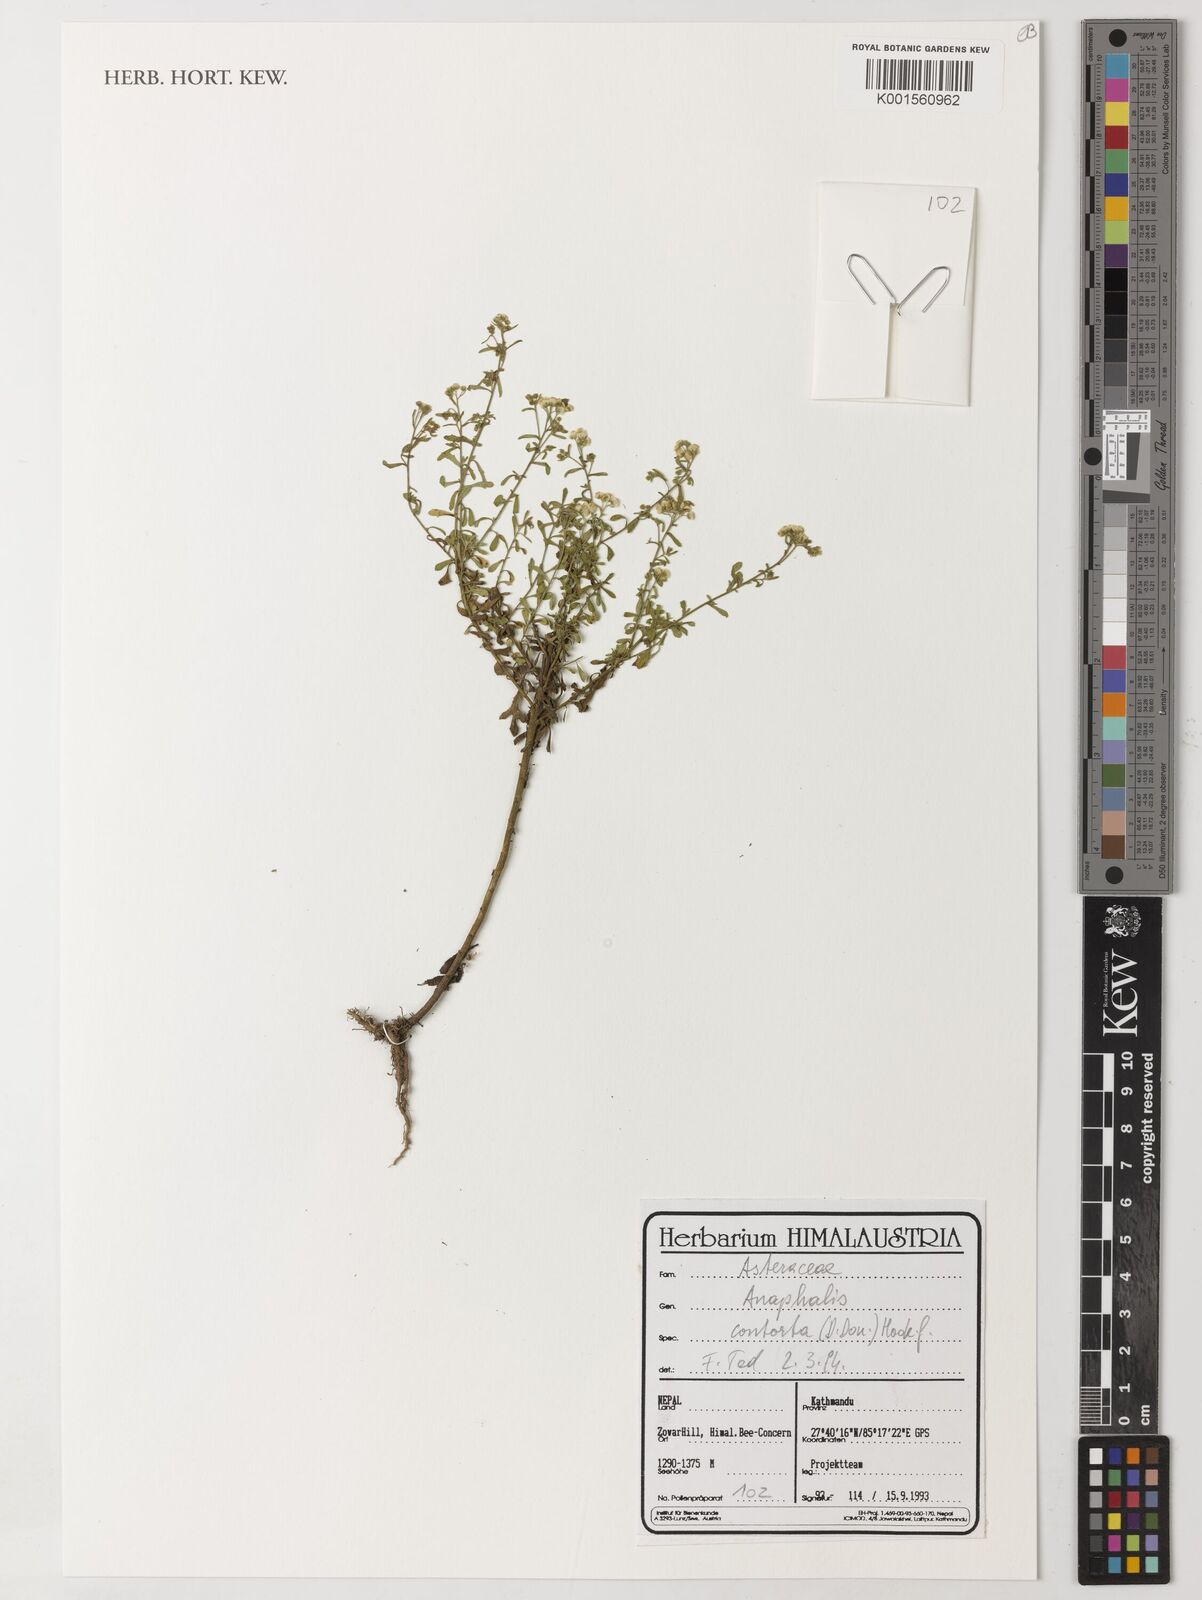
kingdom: Plantae
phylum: Tracheophyta
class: Magnoliopsida
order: Asterales
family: Asteraceae
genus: Anaphalis
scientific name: Anaphalis contorta
